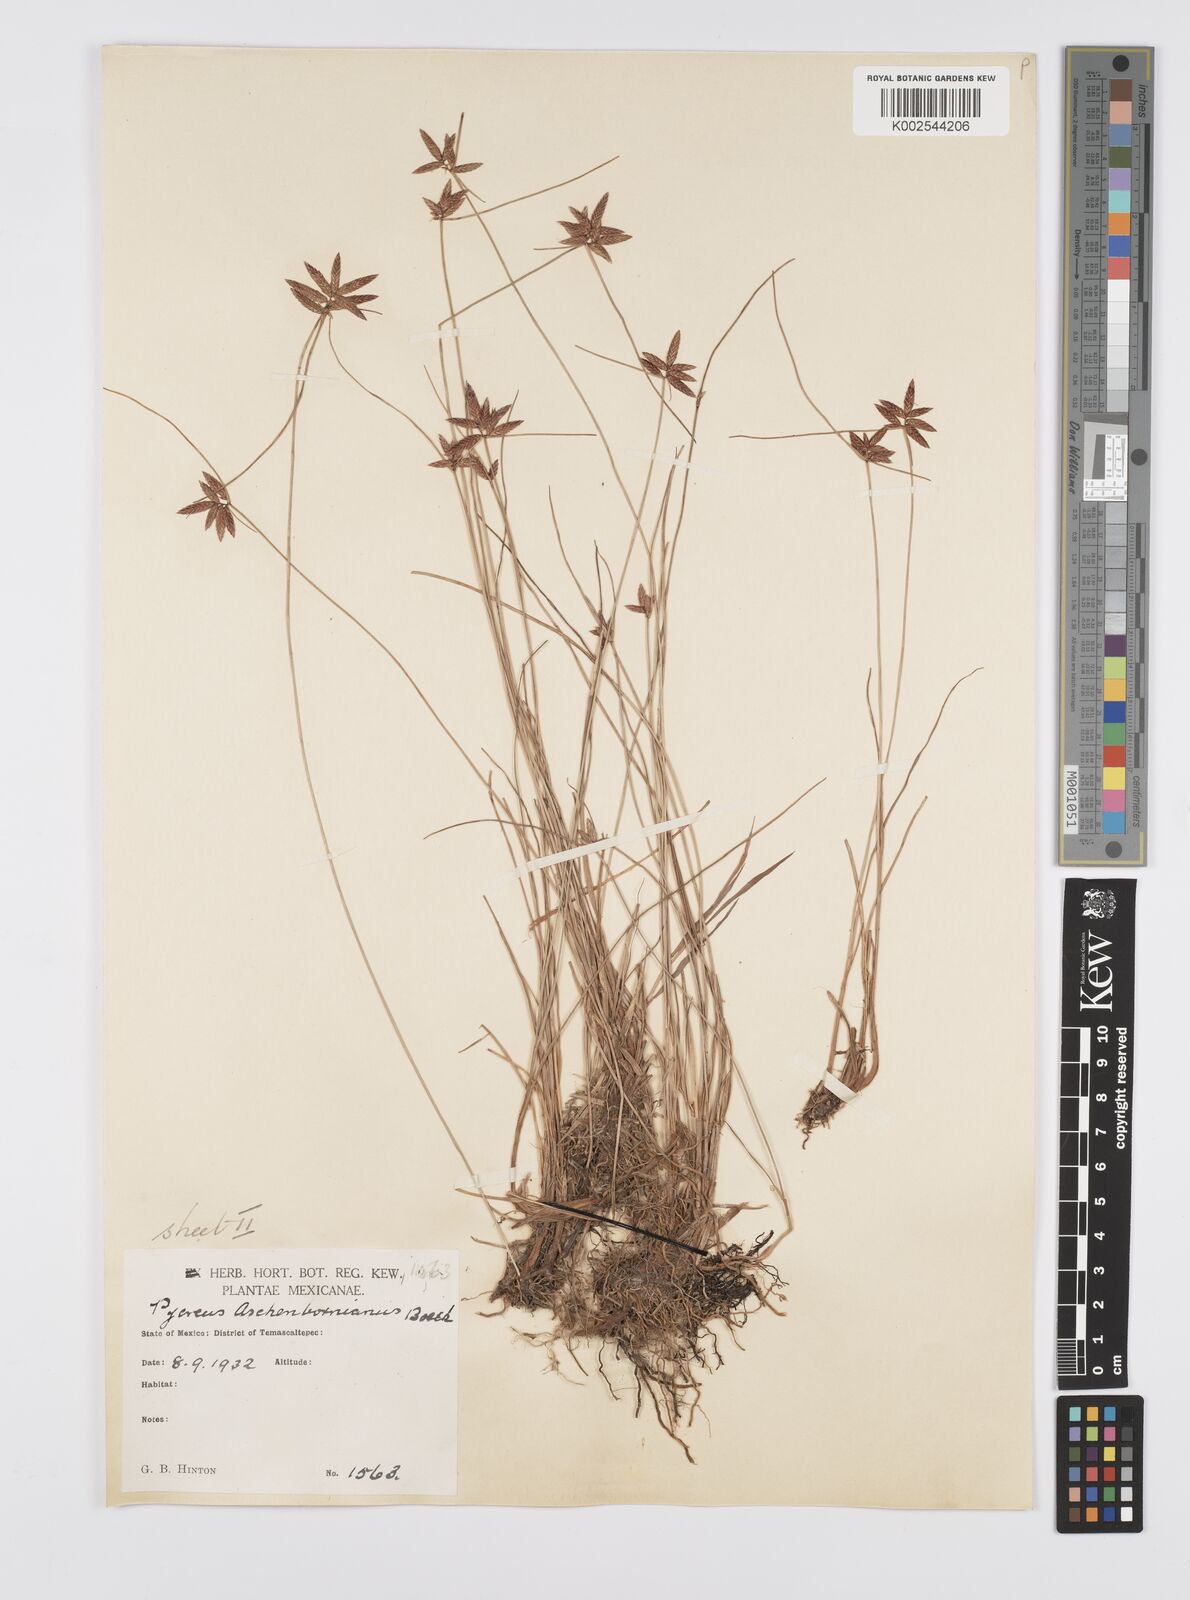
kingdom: Plantae
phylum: Tracheophyta
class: Liliopsida
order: Poales
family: Cyperaceae
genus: Cyperus
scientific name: Cyperus aschenbornianus
